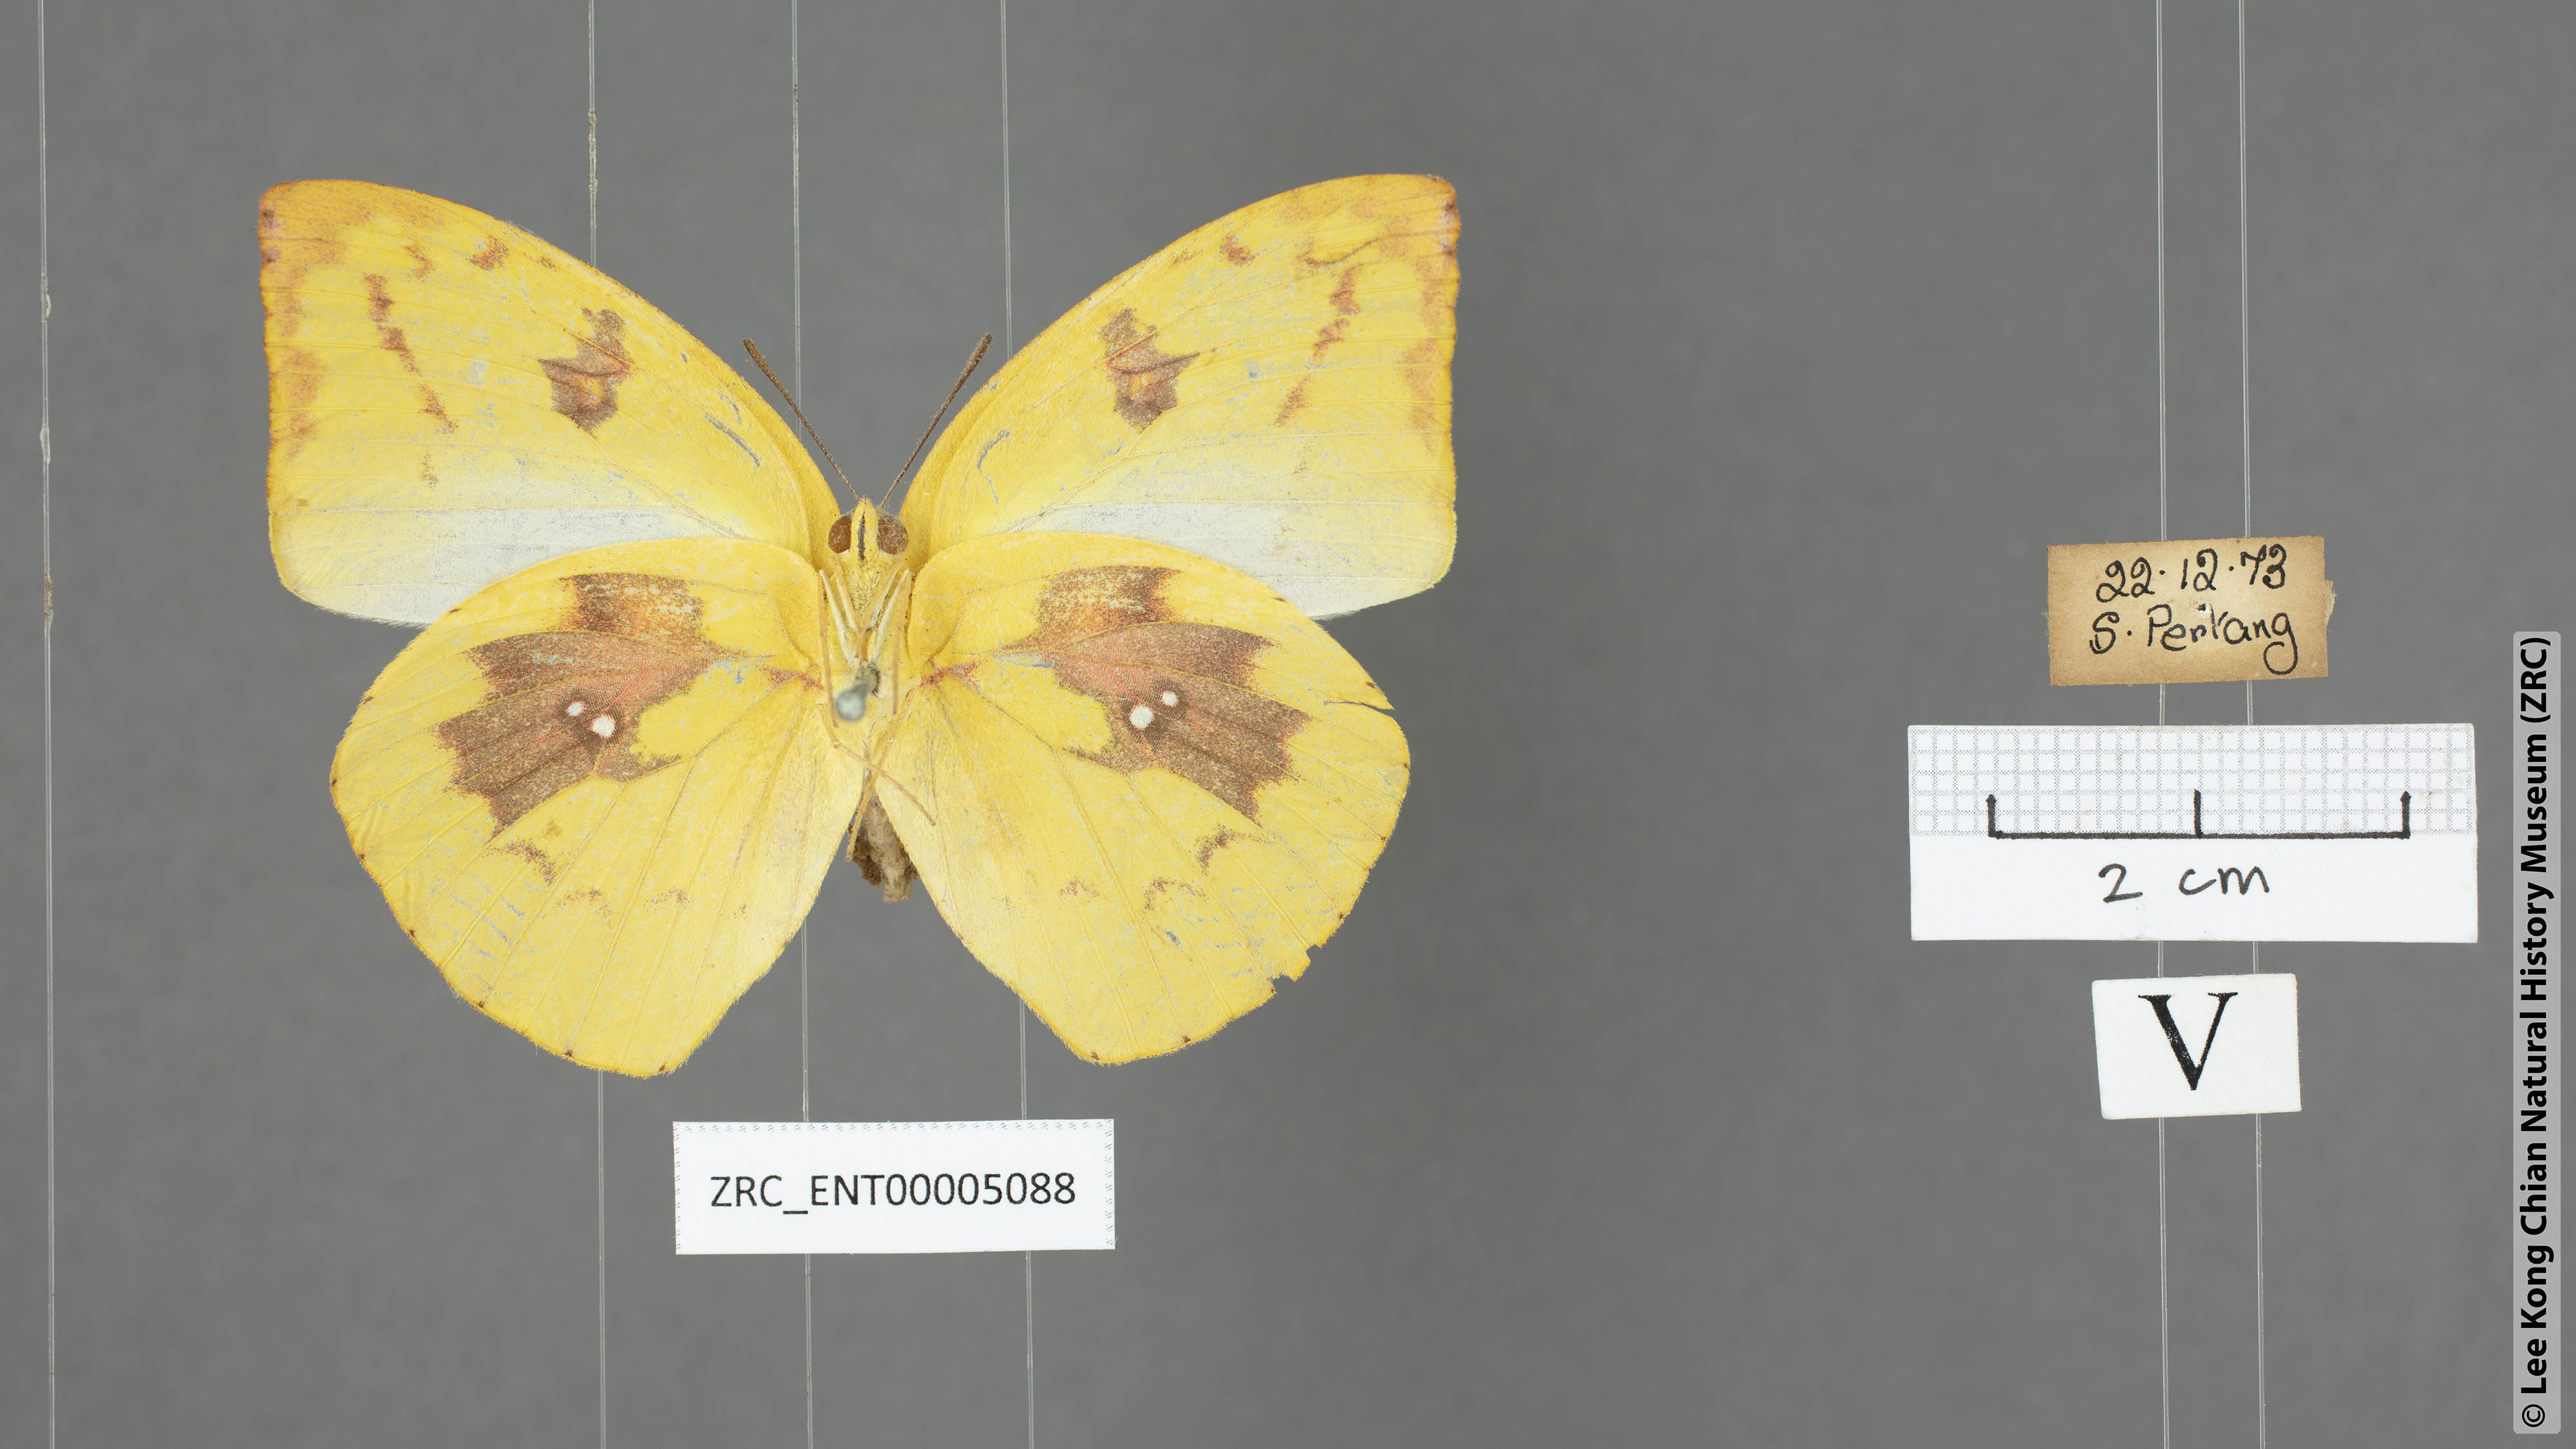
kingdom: Animalia
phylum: Arthropoda
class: Insecta
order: Lepidoptera
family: Pieridae
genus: Catopsilia
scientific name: Catopsilia pomona
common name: Common emigrant
